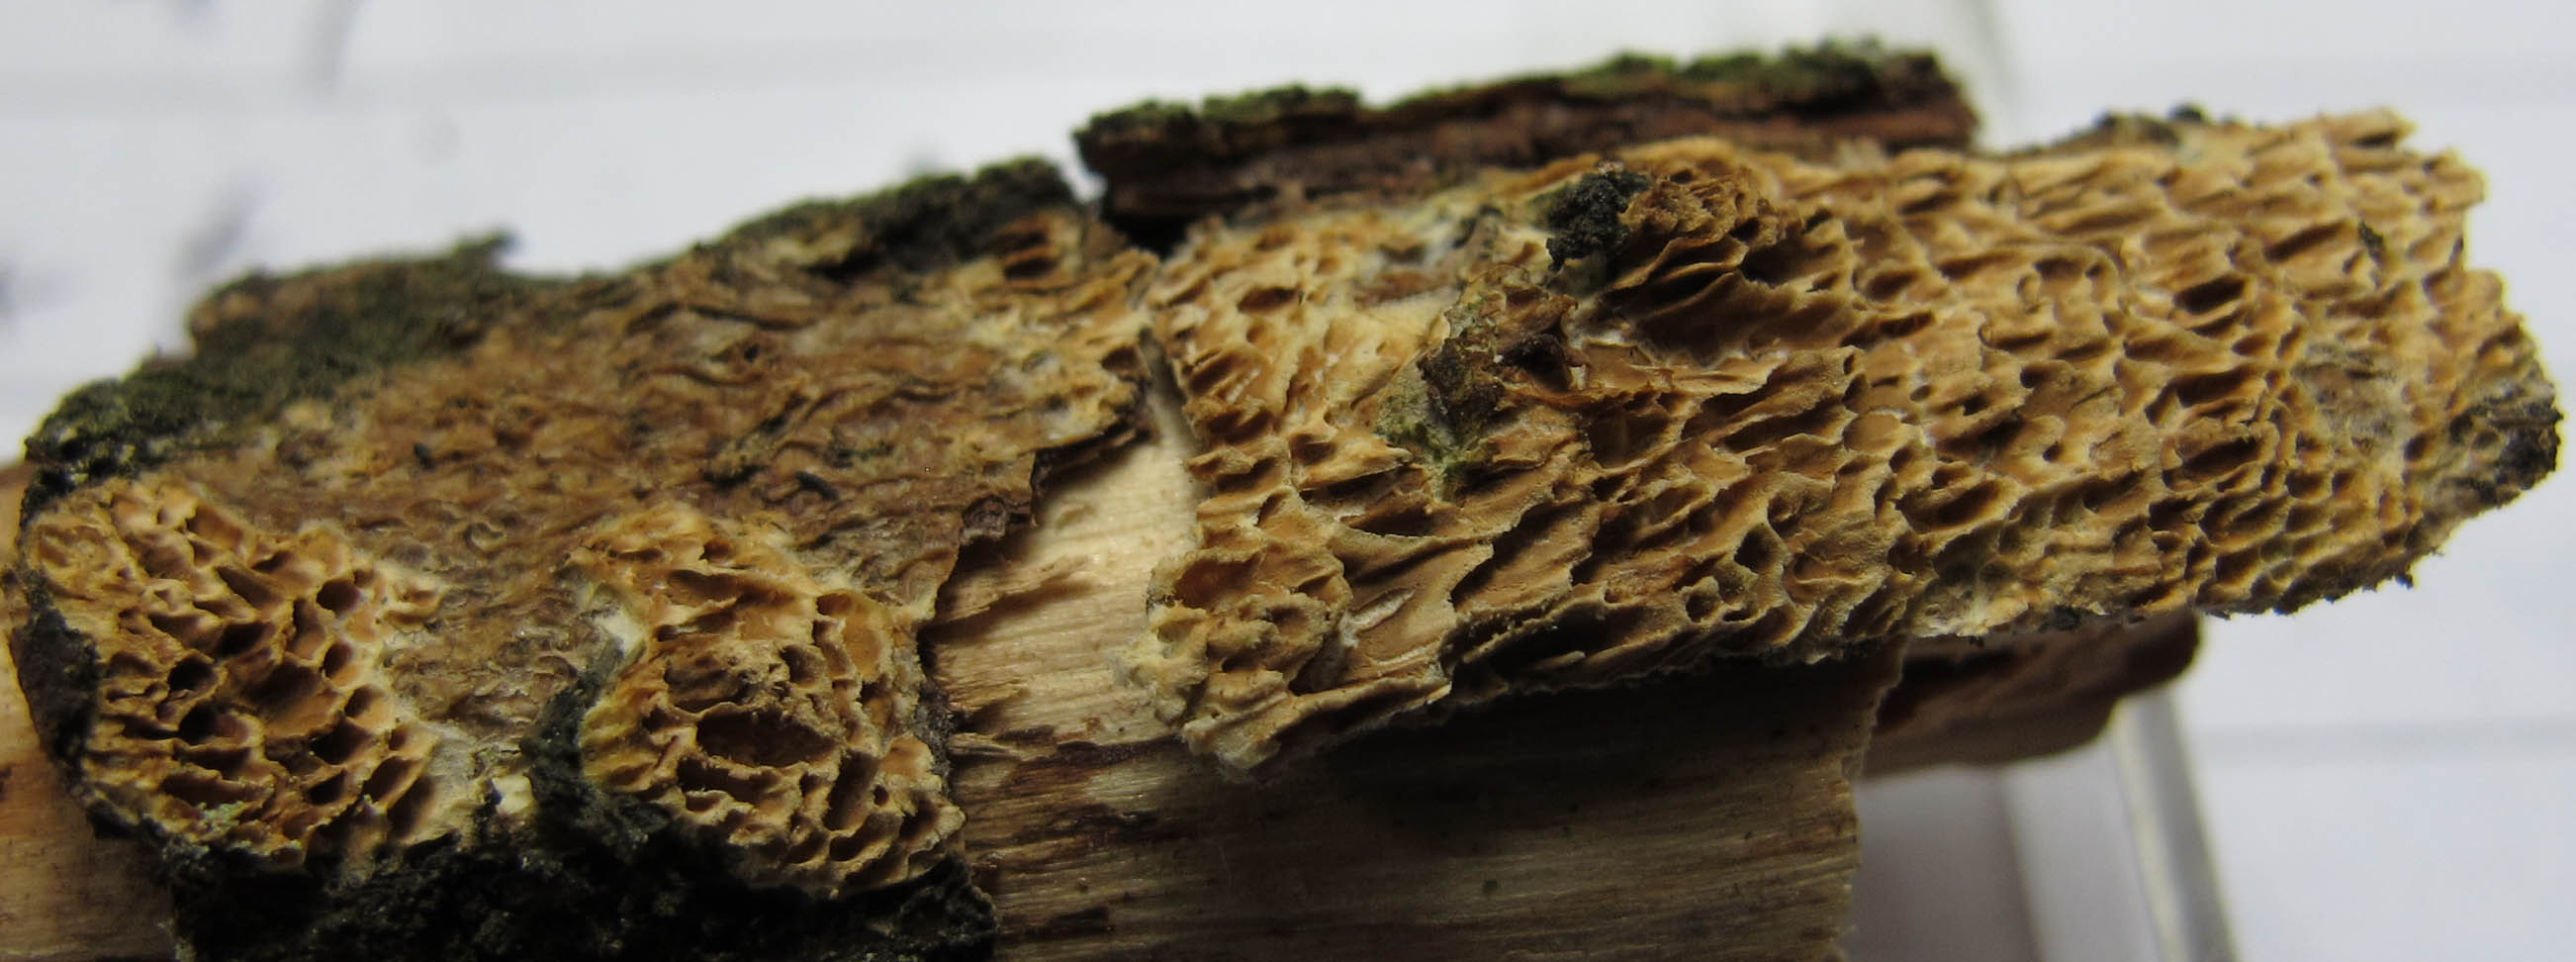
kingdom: Fungi
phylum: Basidiomycota
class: Agaricomycetes
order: Polyporales
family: Fomitopsidaceae
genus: Brunneoporus
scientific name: Brunneoporus kuzyanus
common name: brunlig sejporesvamp
